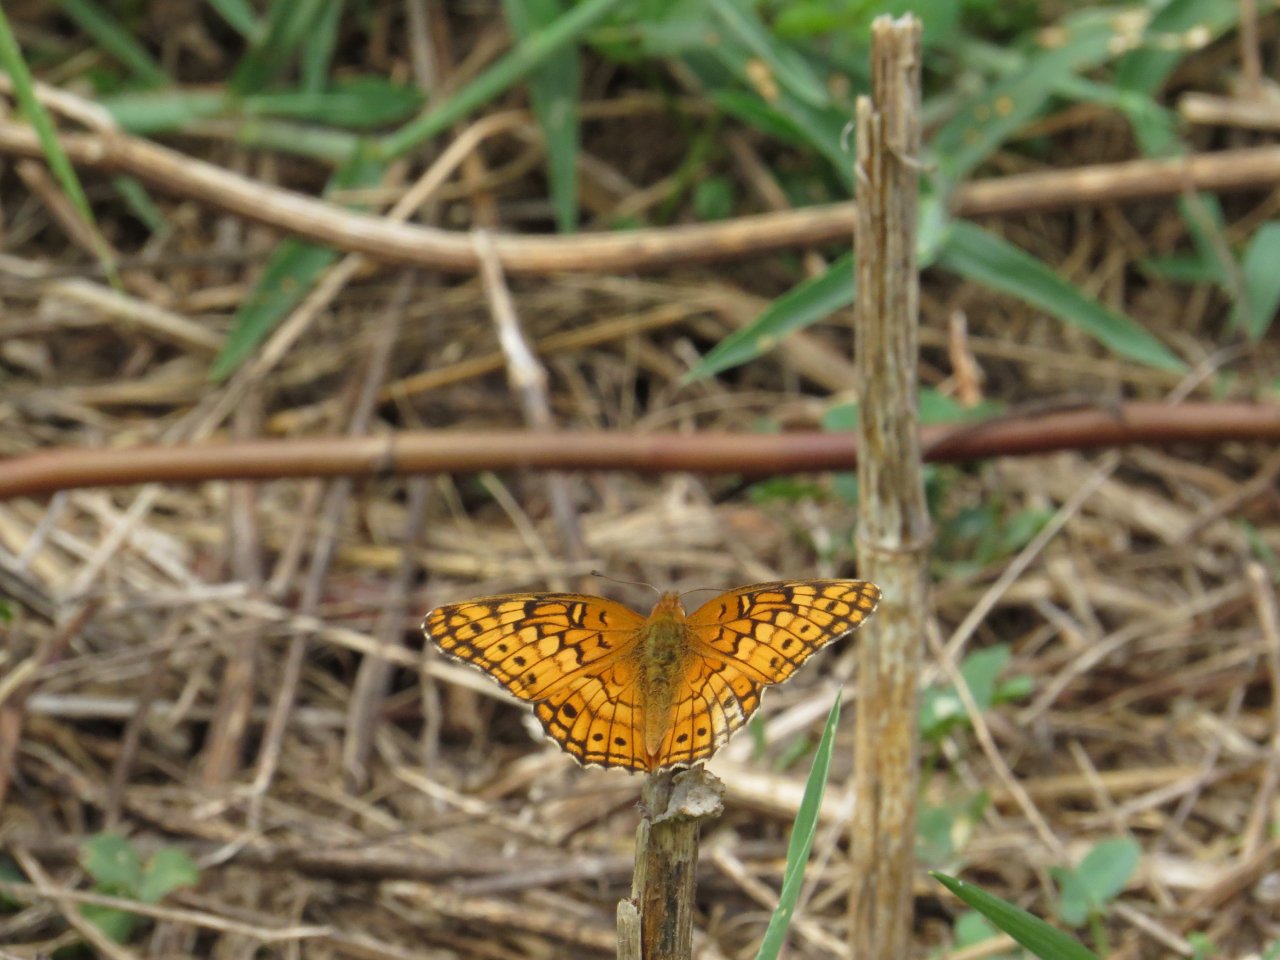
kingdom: Animalia
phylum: Arthropoda
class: Insecta
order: Lepidoptera
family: Nymphalidae
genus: Euptoieta
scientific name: Euptoieta claudia
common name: Variegated Fritillary
